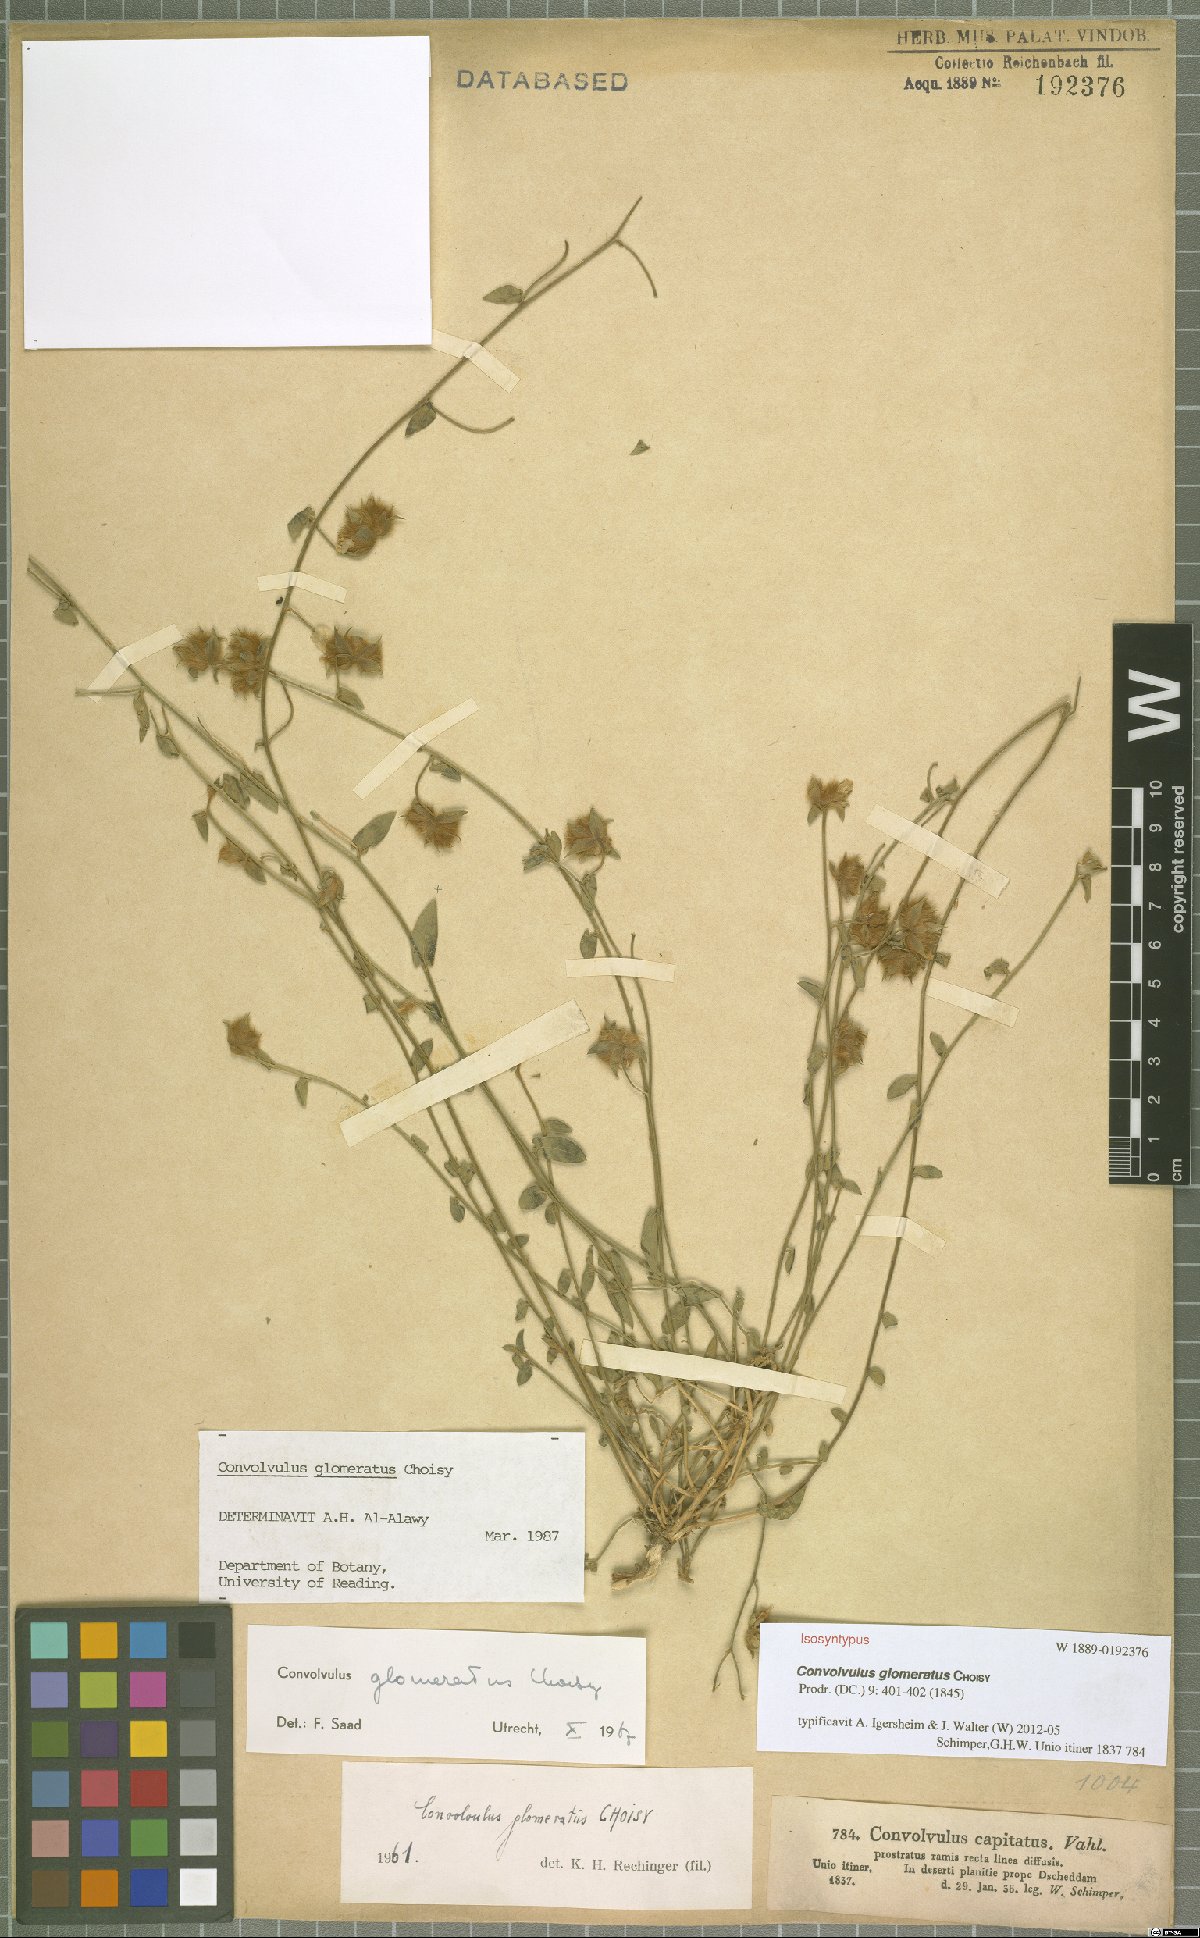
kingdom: Plantae
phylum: Tracheophyta
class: Magnoliopsida
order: Solanales
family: Convolvulaceae
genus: Convolvulus
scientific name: Convolvulus glomeratus
